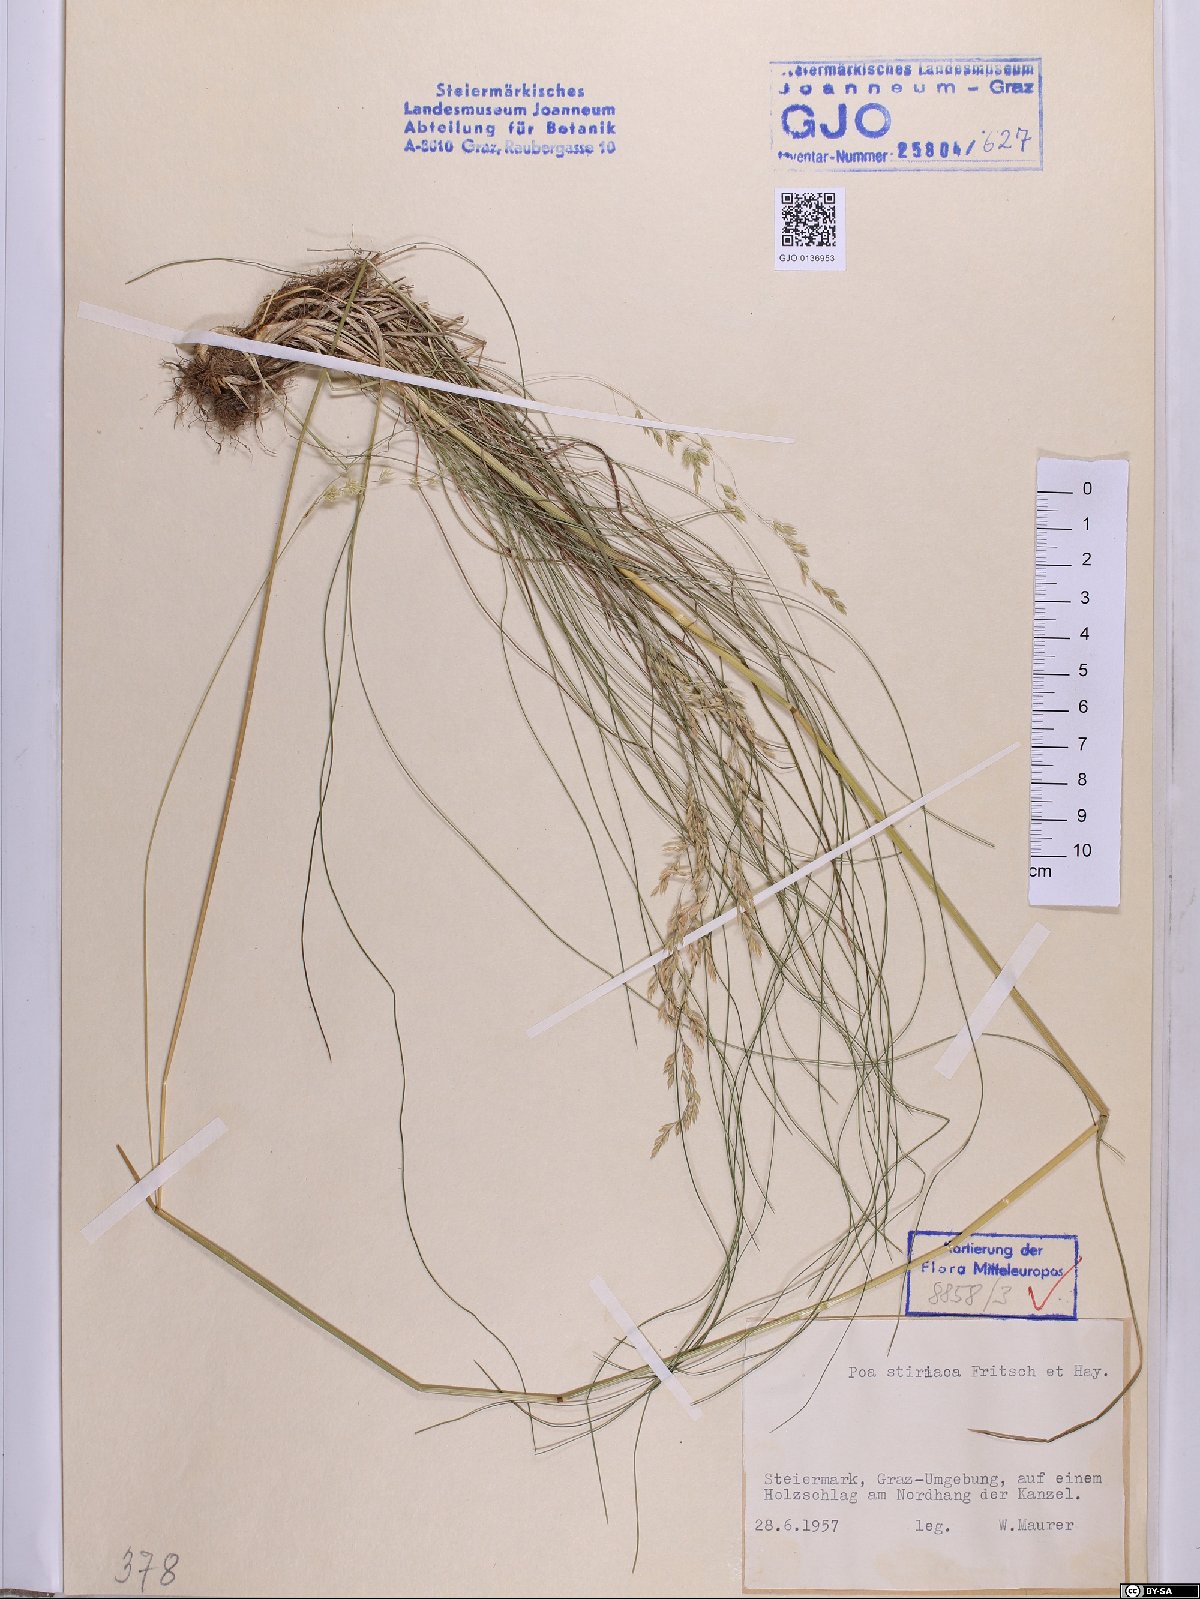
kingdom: Plantae
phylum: Tracheophyta
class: Liliopsida
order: Poales
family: Poaceae
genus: Poa
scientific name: Poa stiriaca
